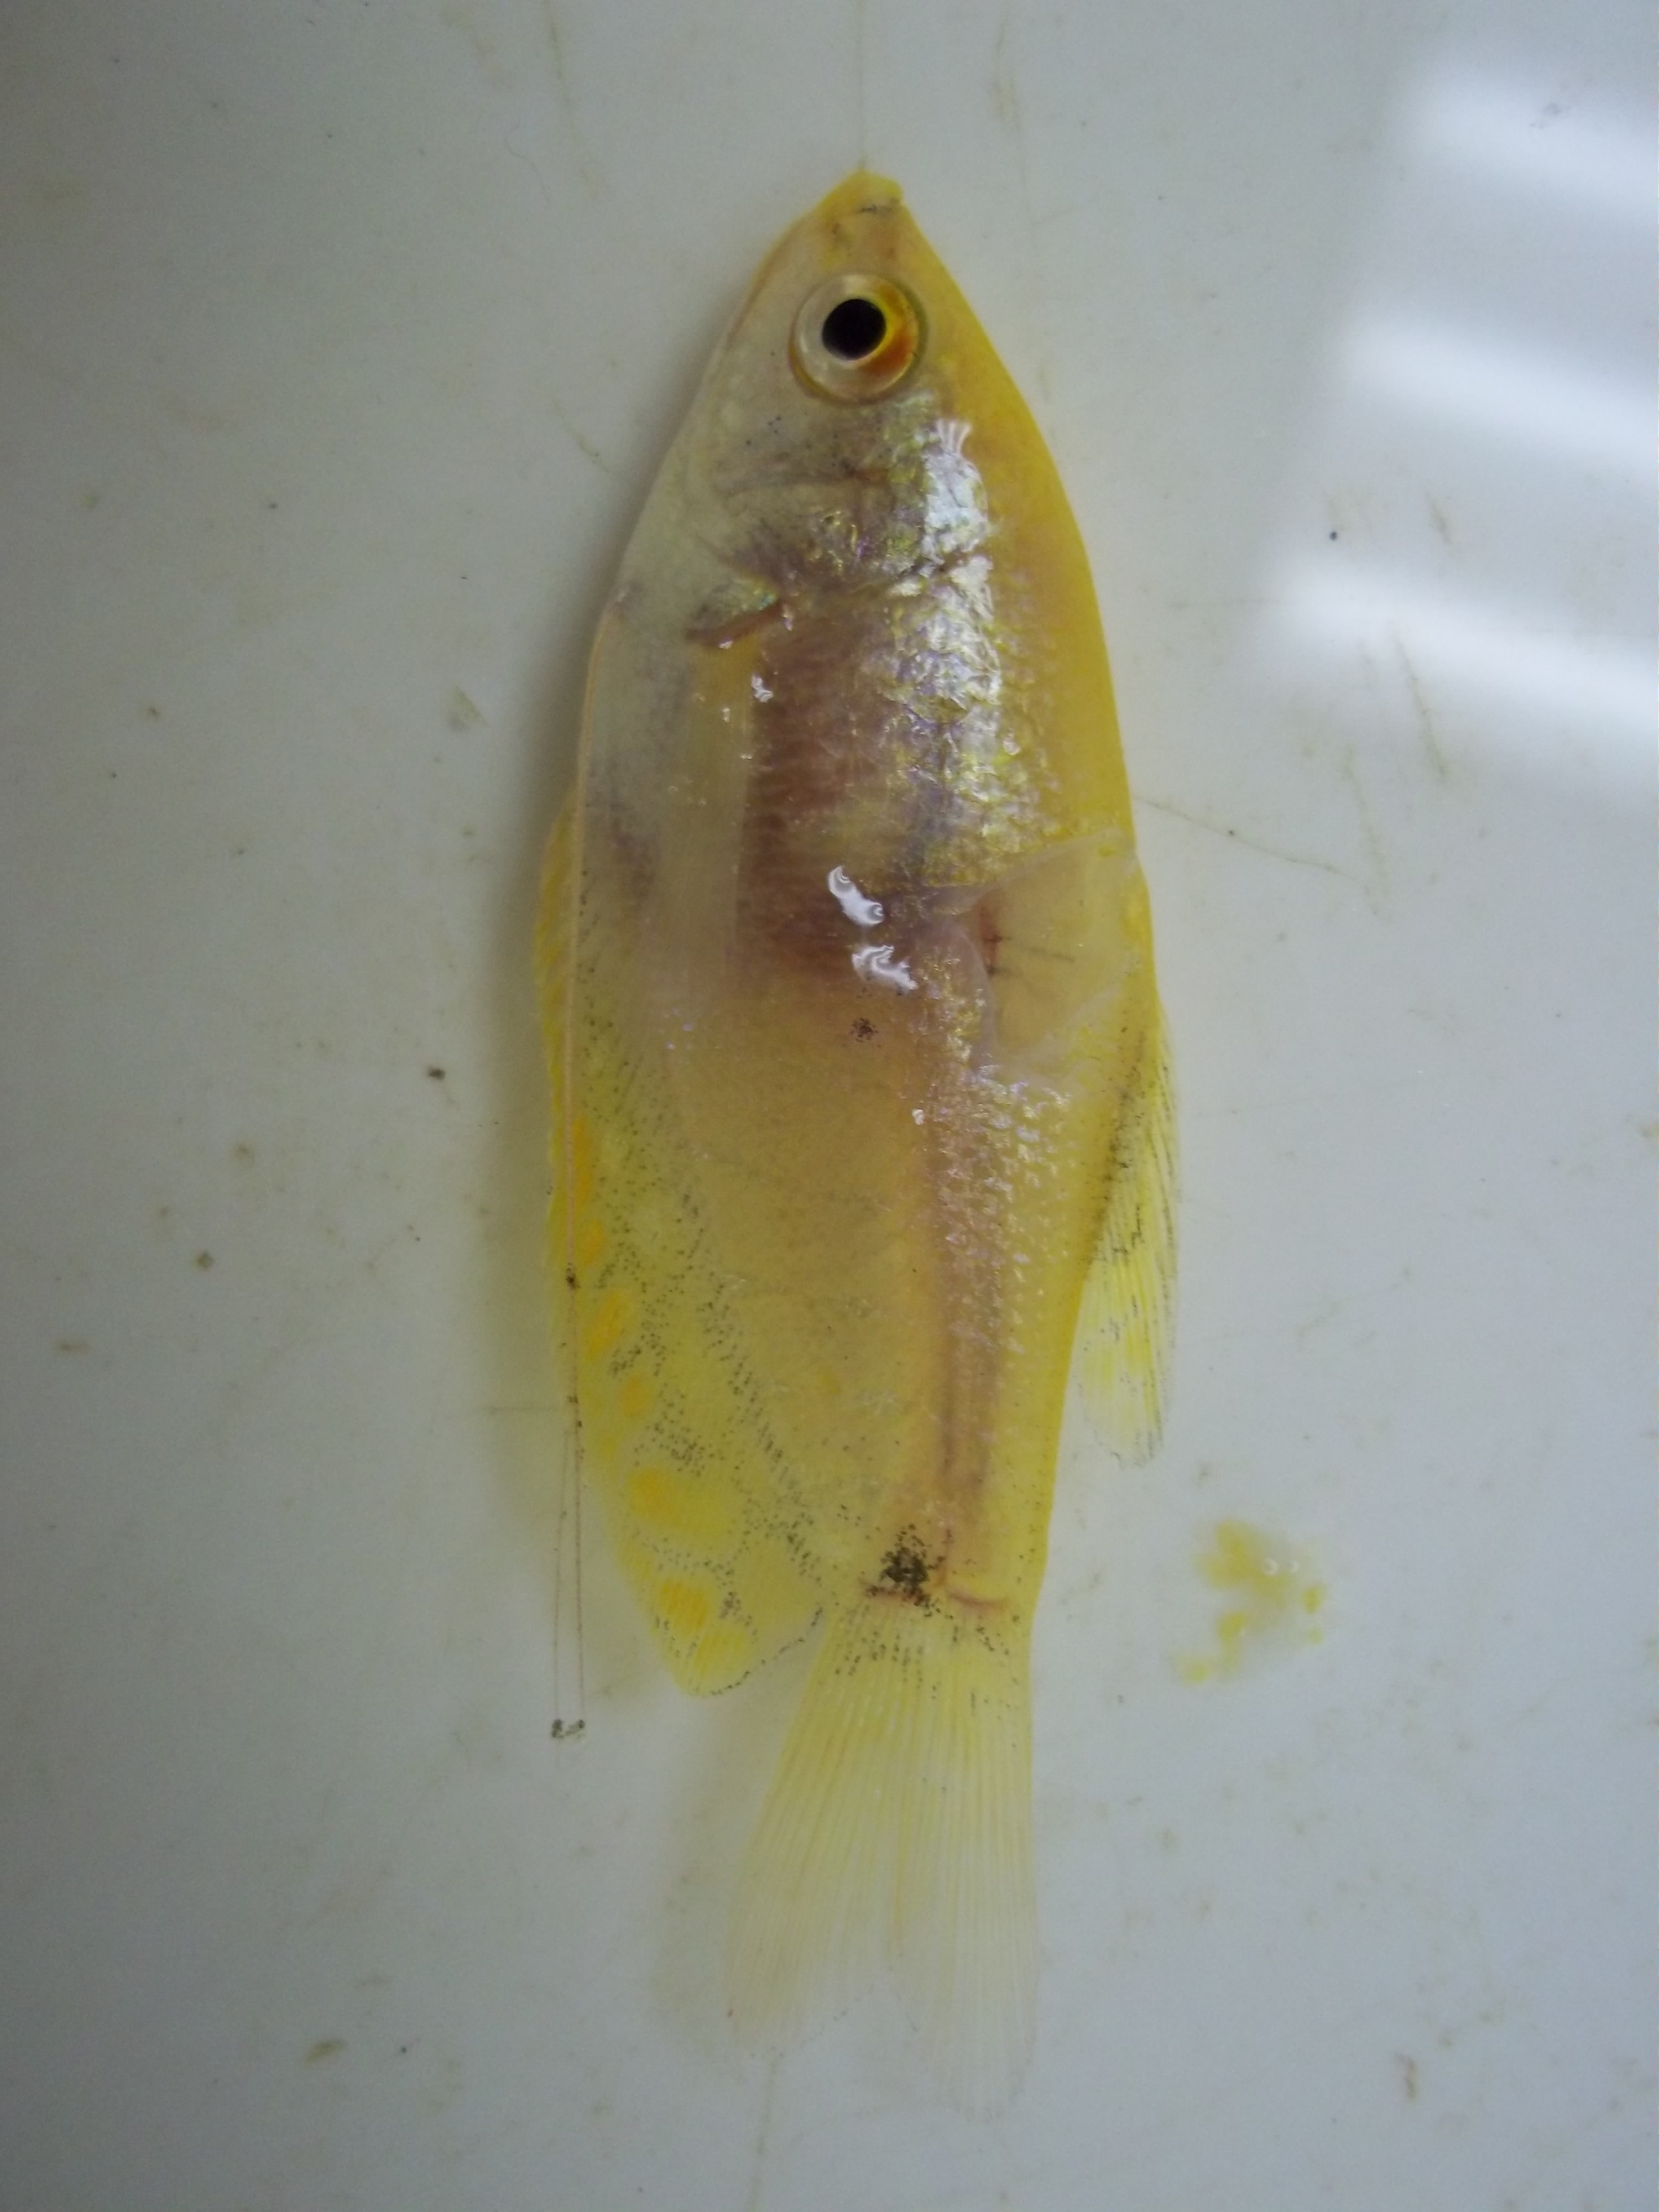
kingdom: Animalia
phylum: Chordata
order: Perciformes
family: Osphronemidae
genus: Trichopodus
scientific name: Trichopodus trichopterus
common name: Blue gourami
